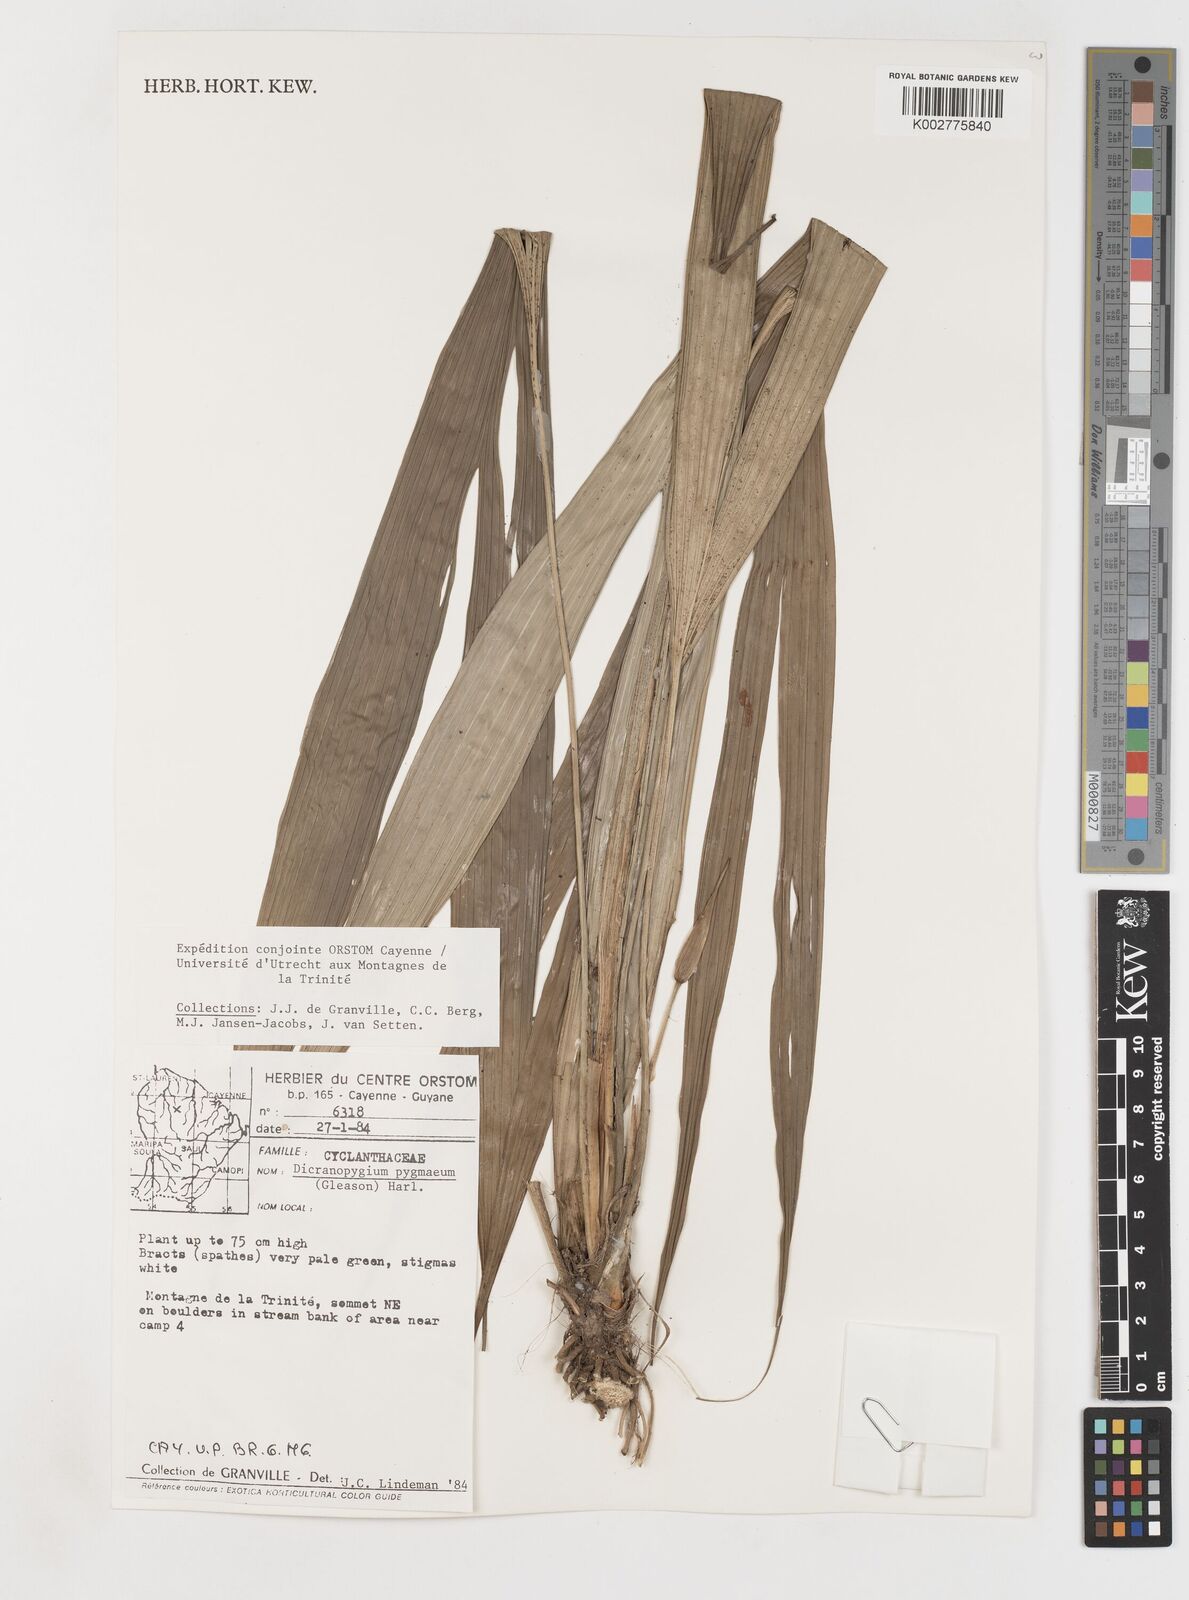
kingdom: Plantae
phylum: Tracheophyta
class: Liliopsida
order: Pandanales
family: Cyclanthaceae
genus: Dicranopygium
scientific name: Dicranopygium pygmaeum
